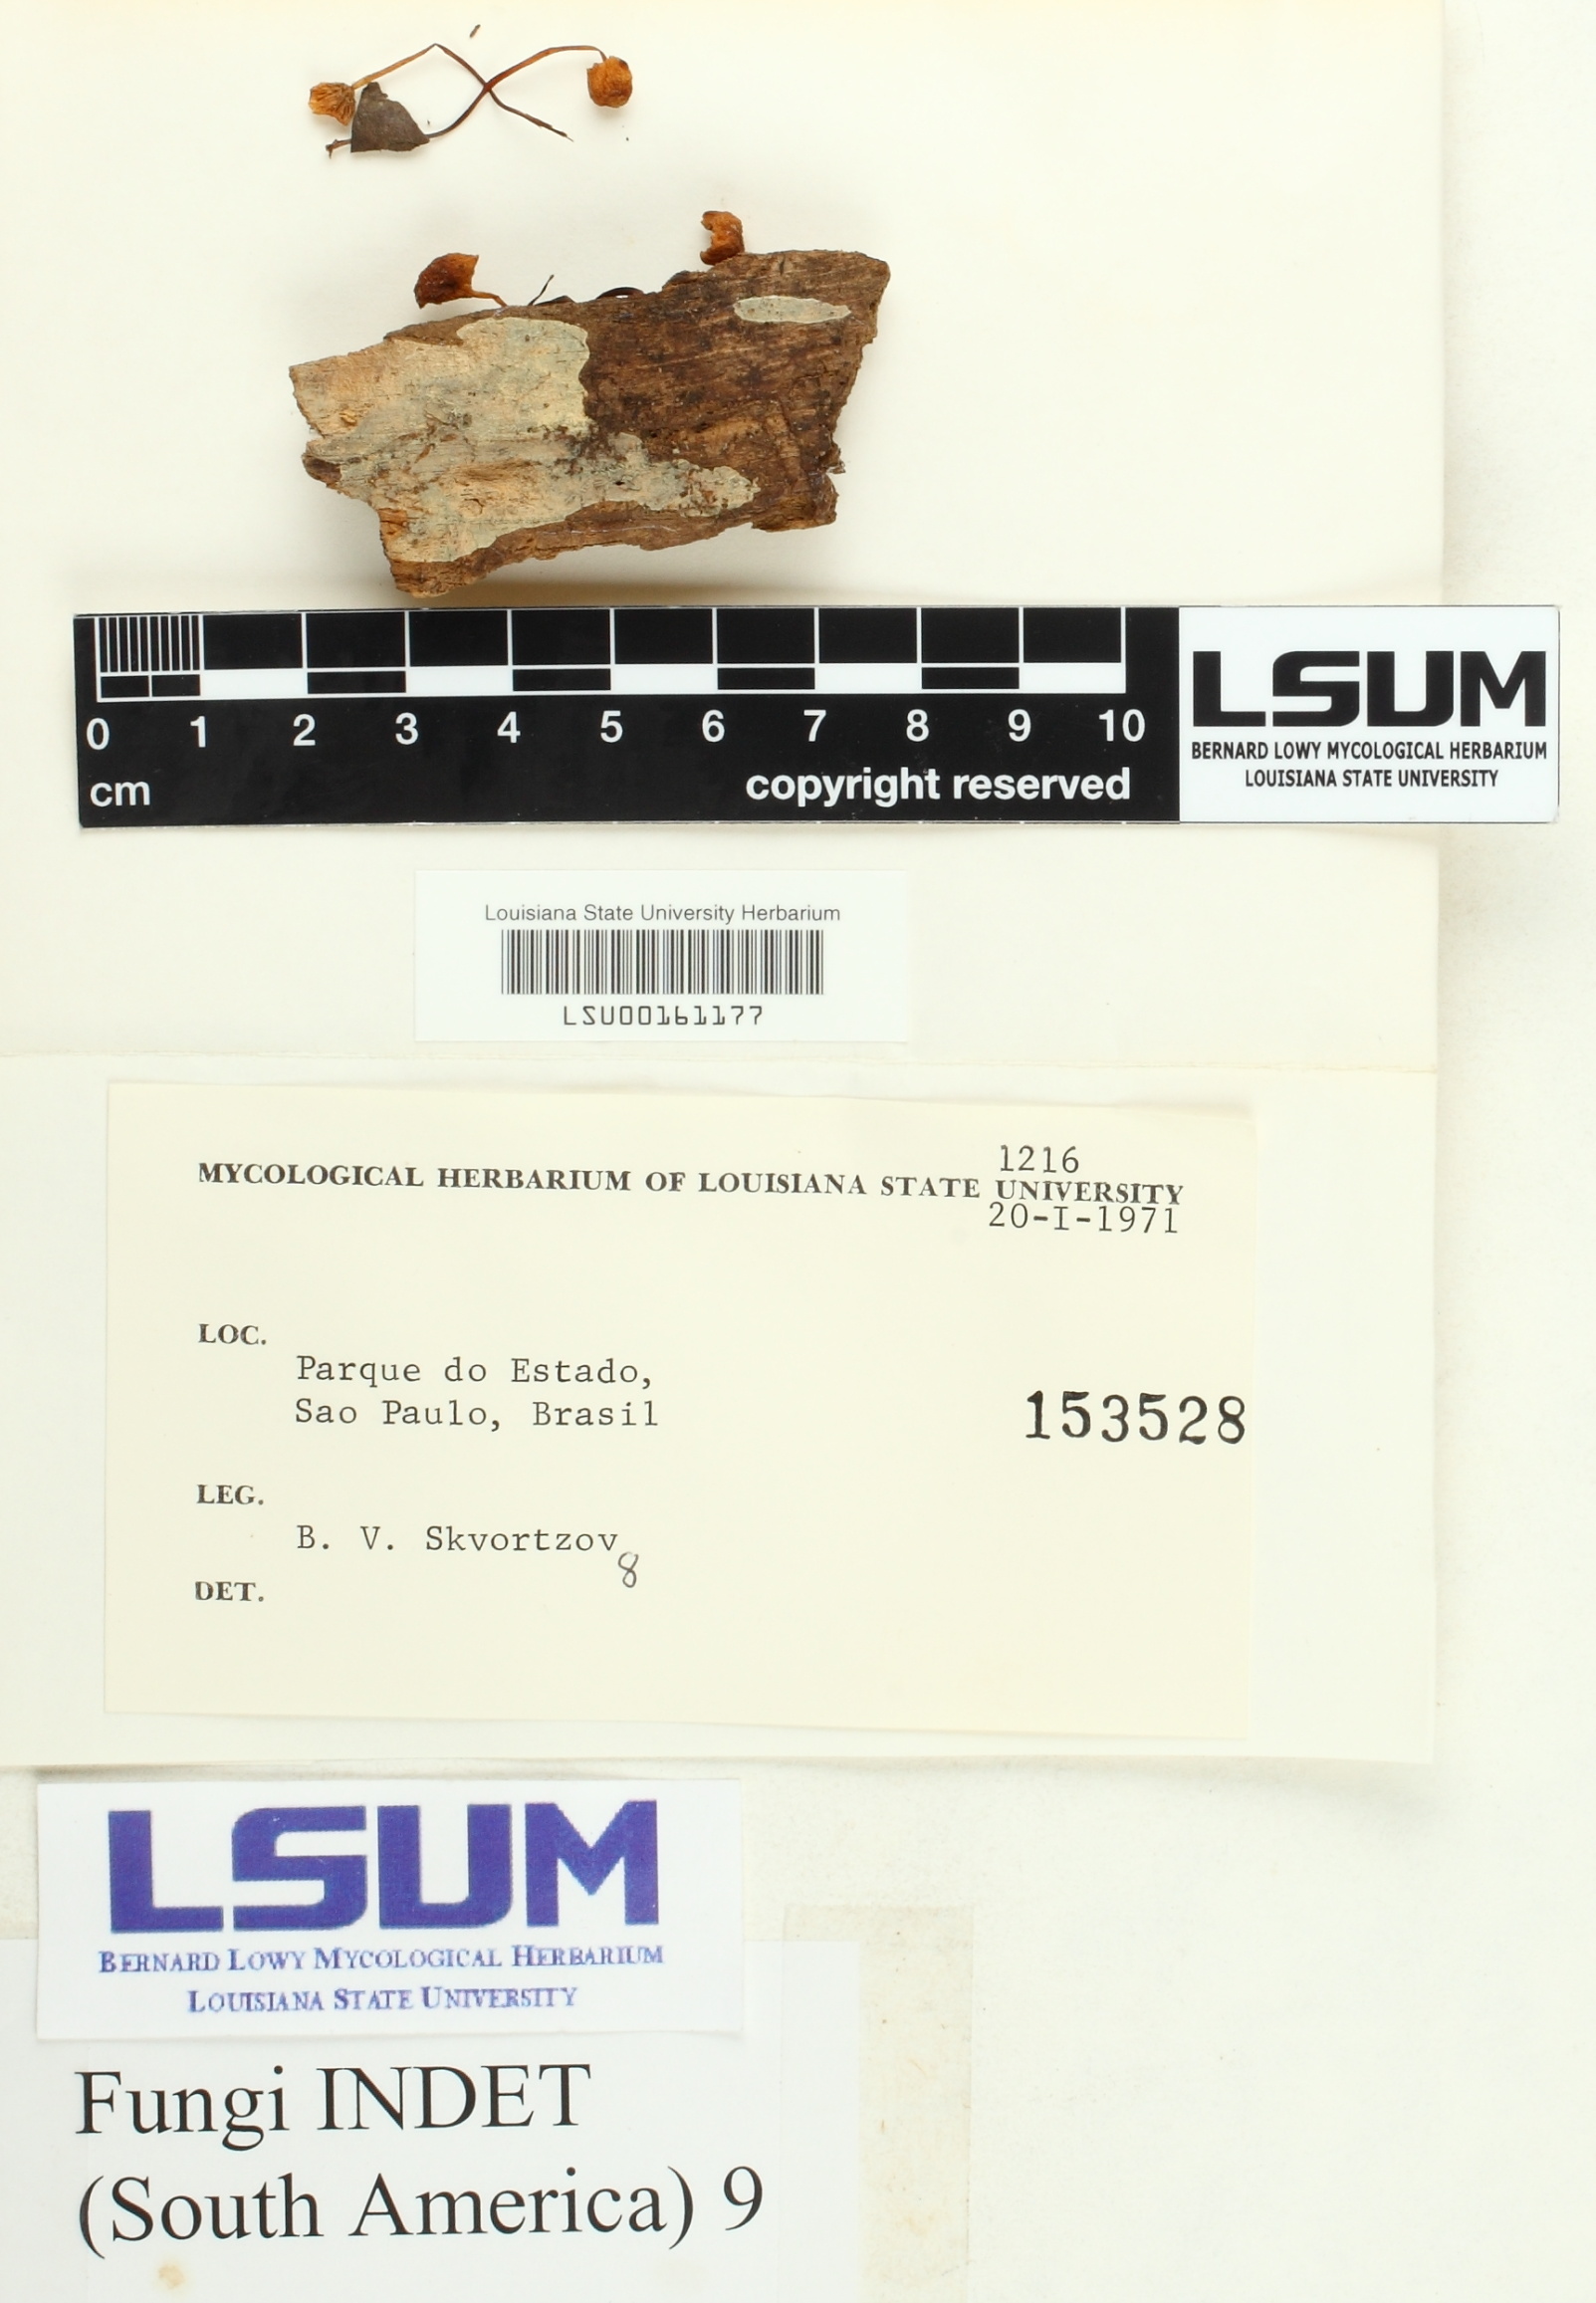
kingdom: Fungi
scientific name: Fungi
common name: Fungi
